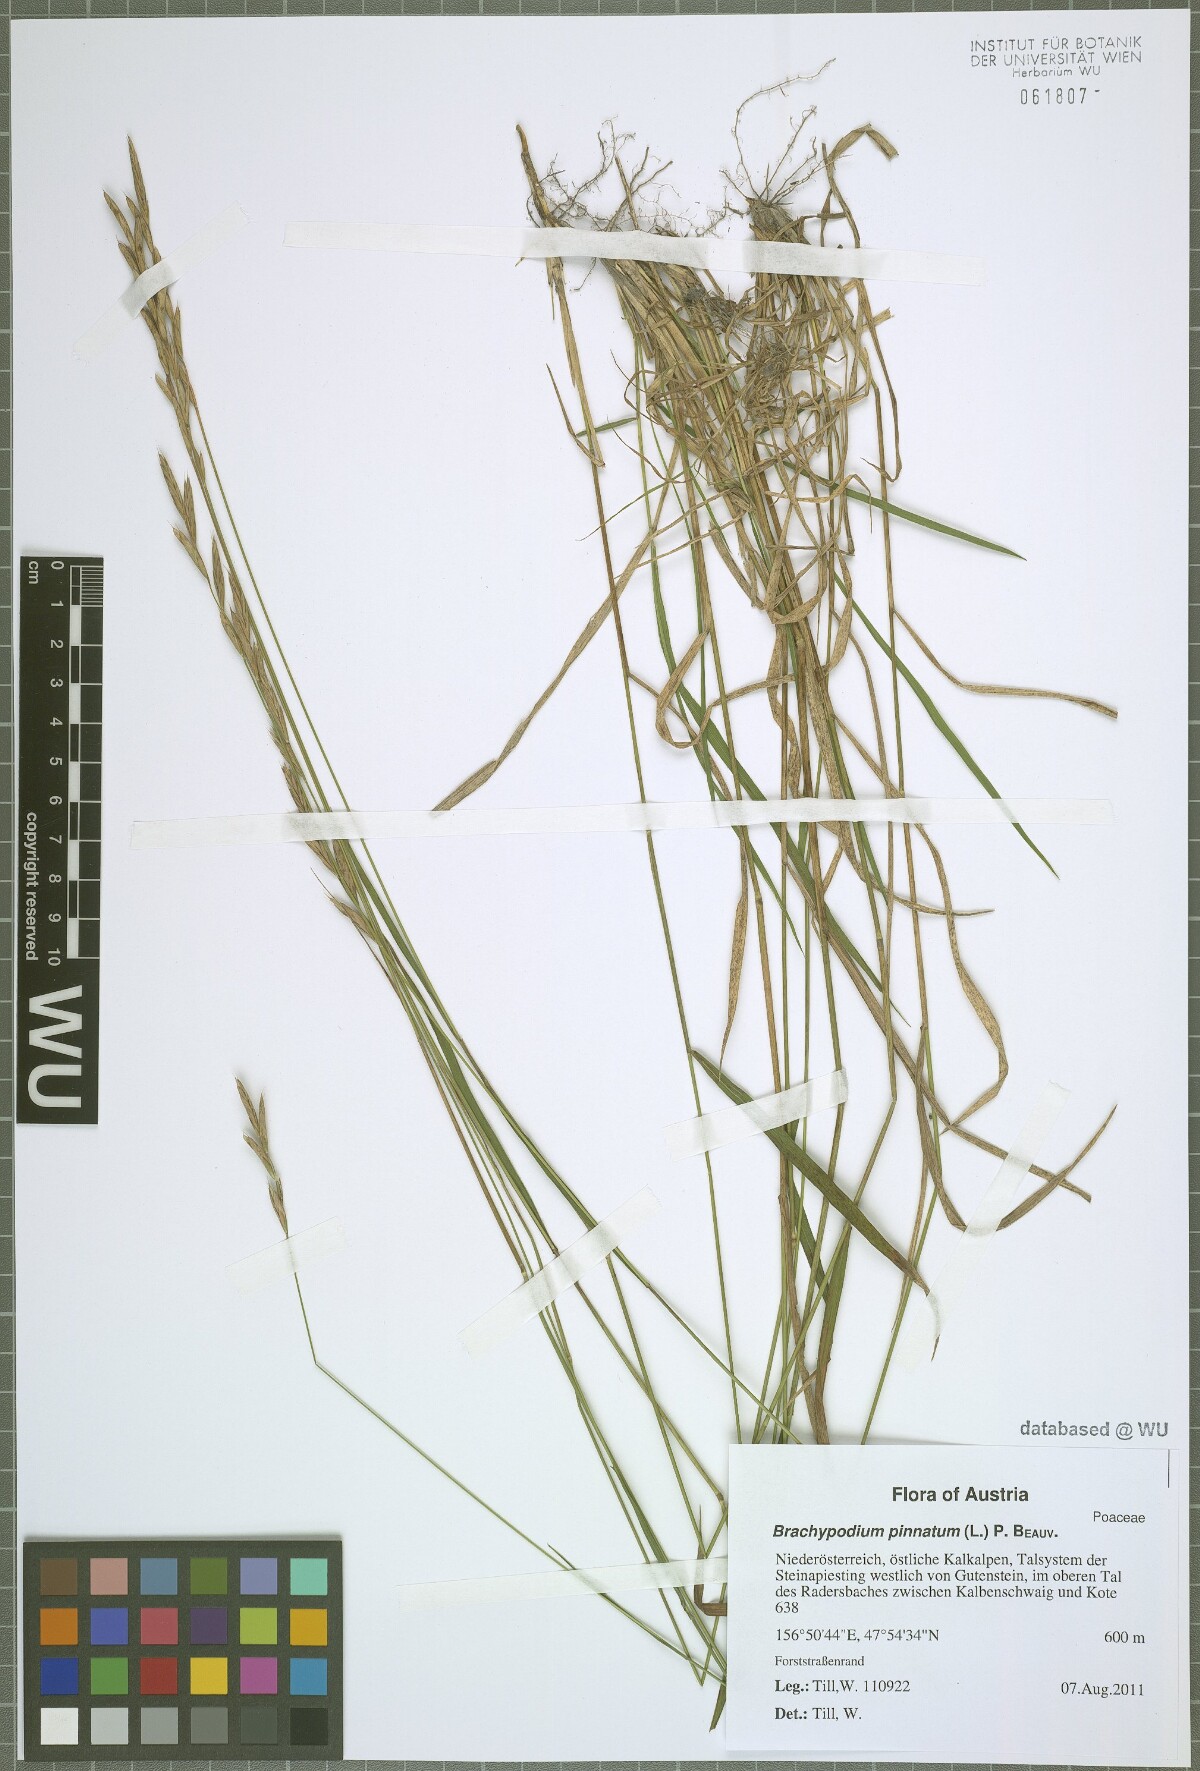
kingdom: Plantae
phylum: Tracheophyta
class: Liliopsida
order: Poales
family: Poaceae
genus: Brachypodium
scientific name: Brachypodium pinnatum
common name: Tor grass
